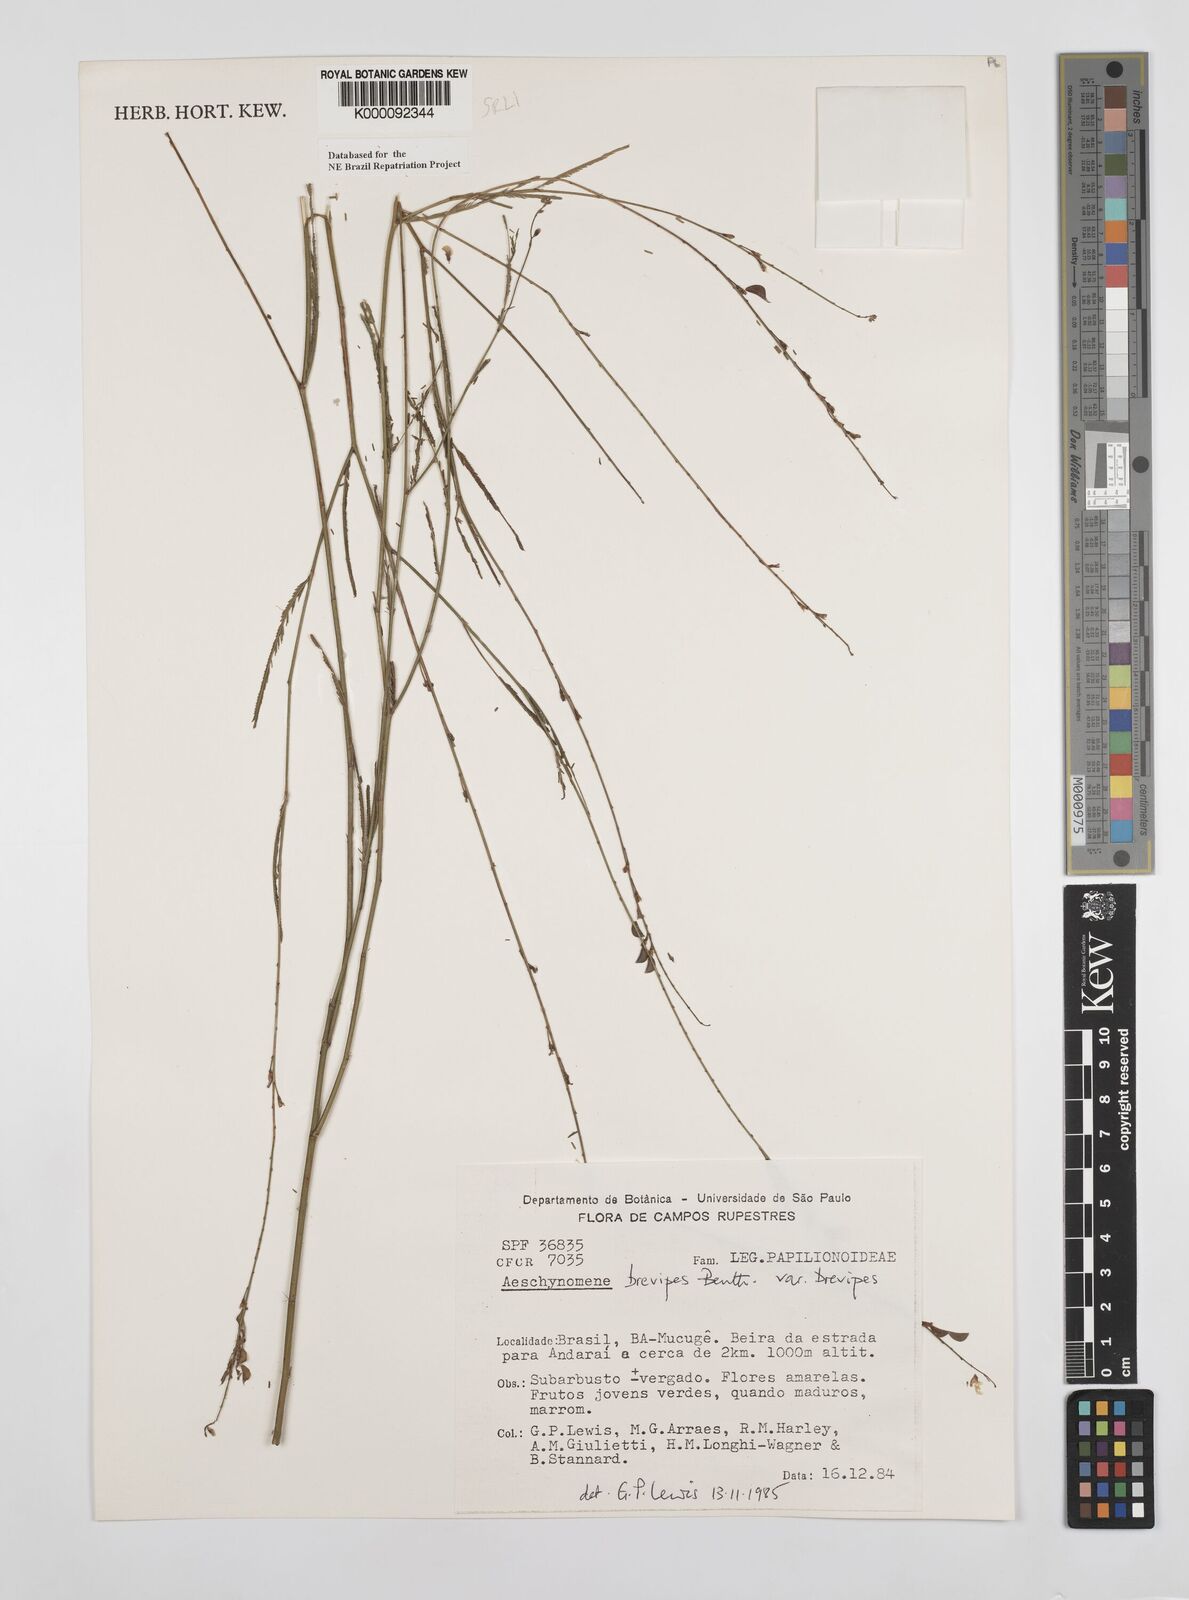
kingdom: Plantae
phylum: Tracheophyta
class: Magnoliopsida
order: Fabales
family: Fabaceae
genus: Ctenodon
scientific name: Ctenodon brevipes
